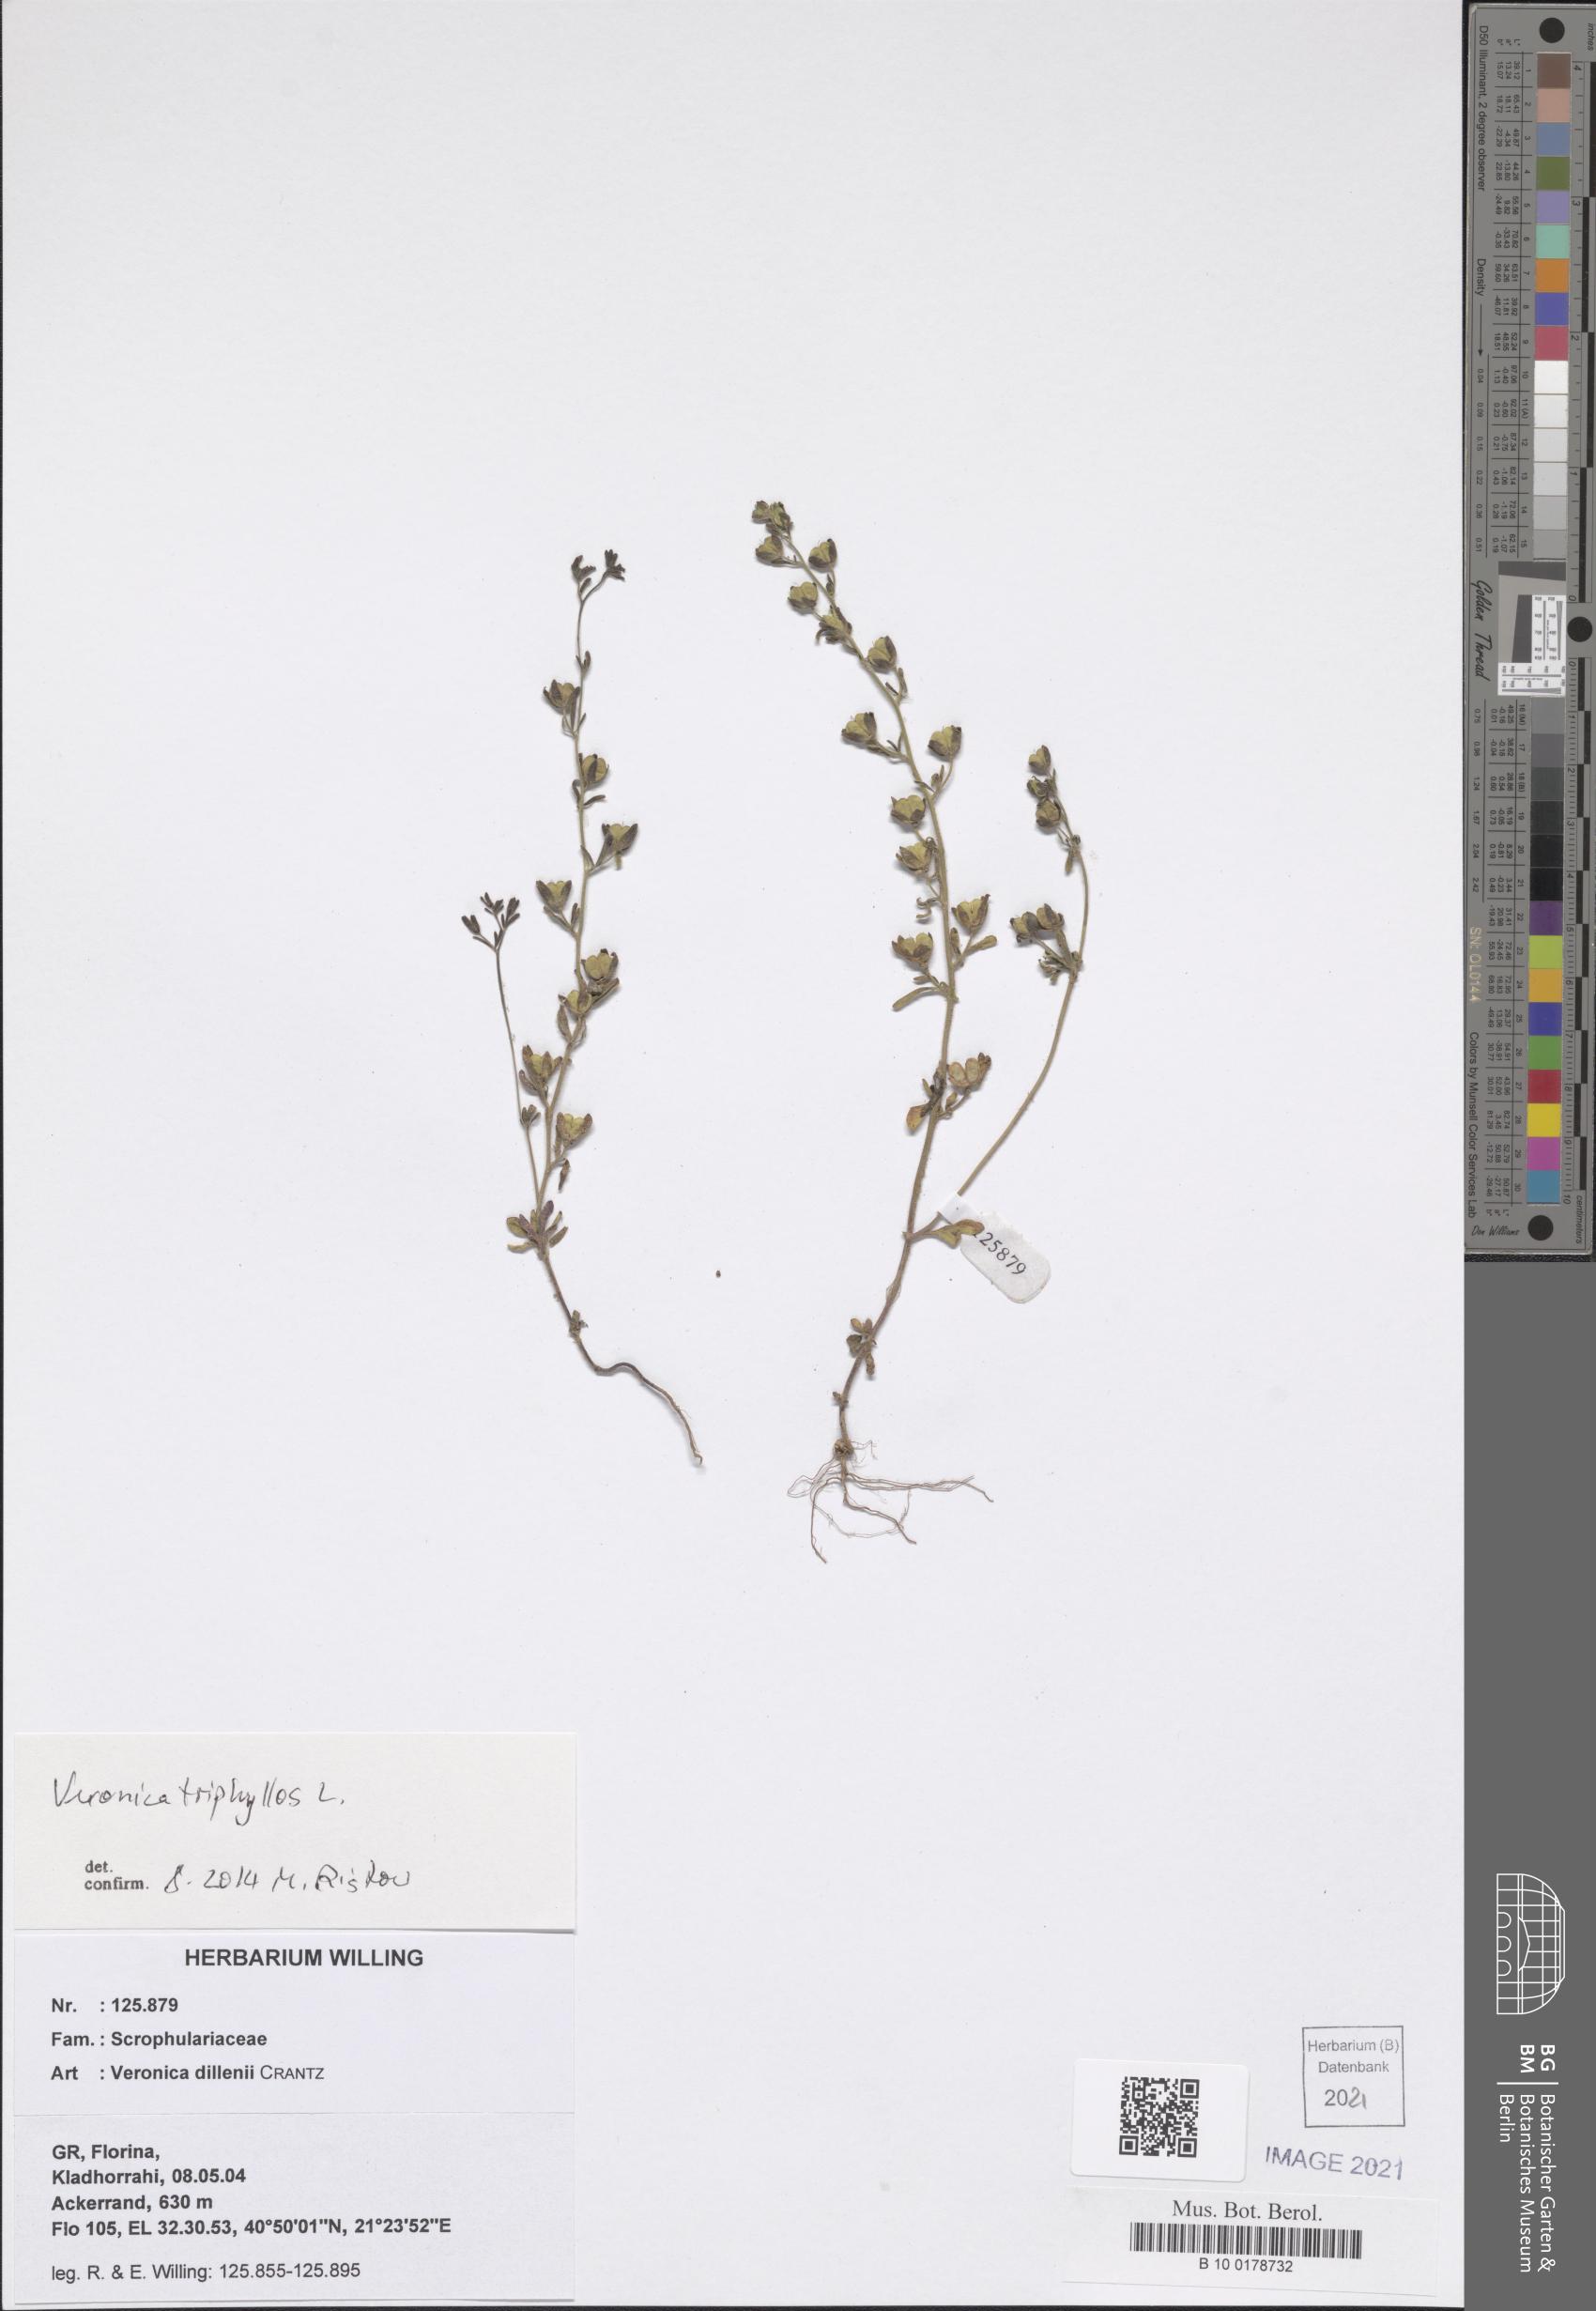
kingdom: Plantae
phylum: Tracheophyta
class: Magnoliopsida
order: Lamiales
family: Plantaginaceae
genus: Veronica
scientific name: Veronica triphyllos
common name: Fingered speedwell
